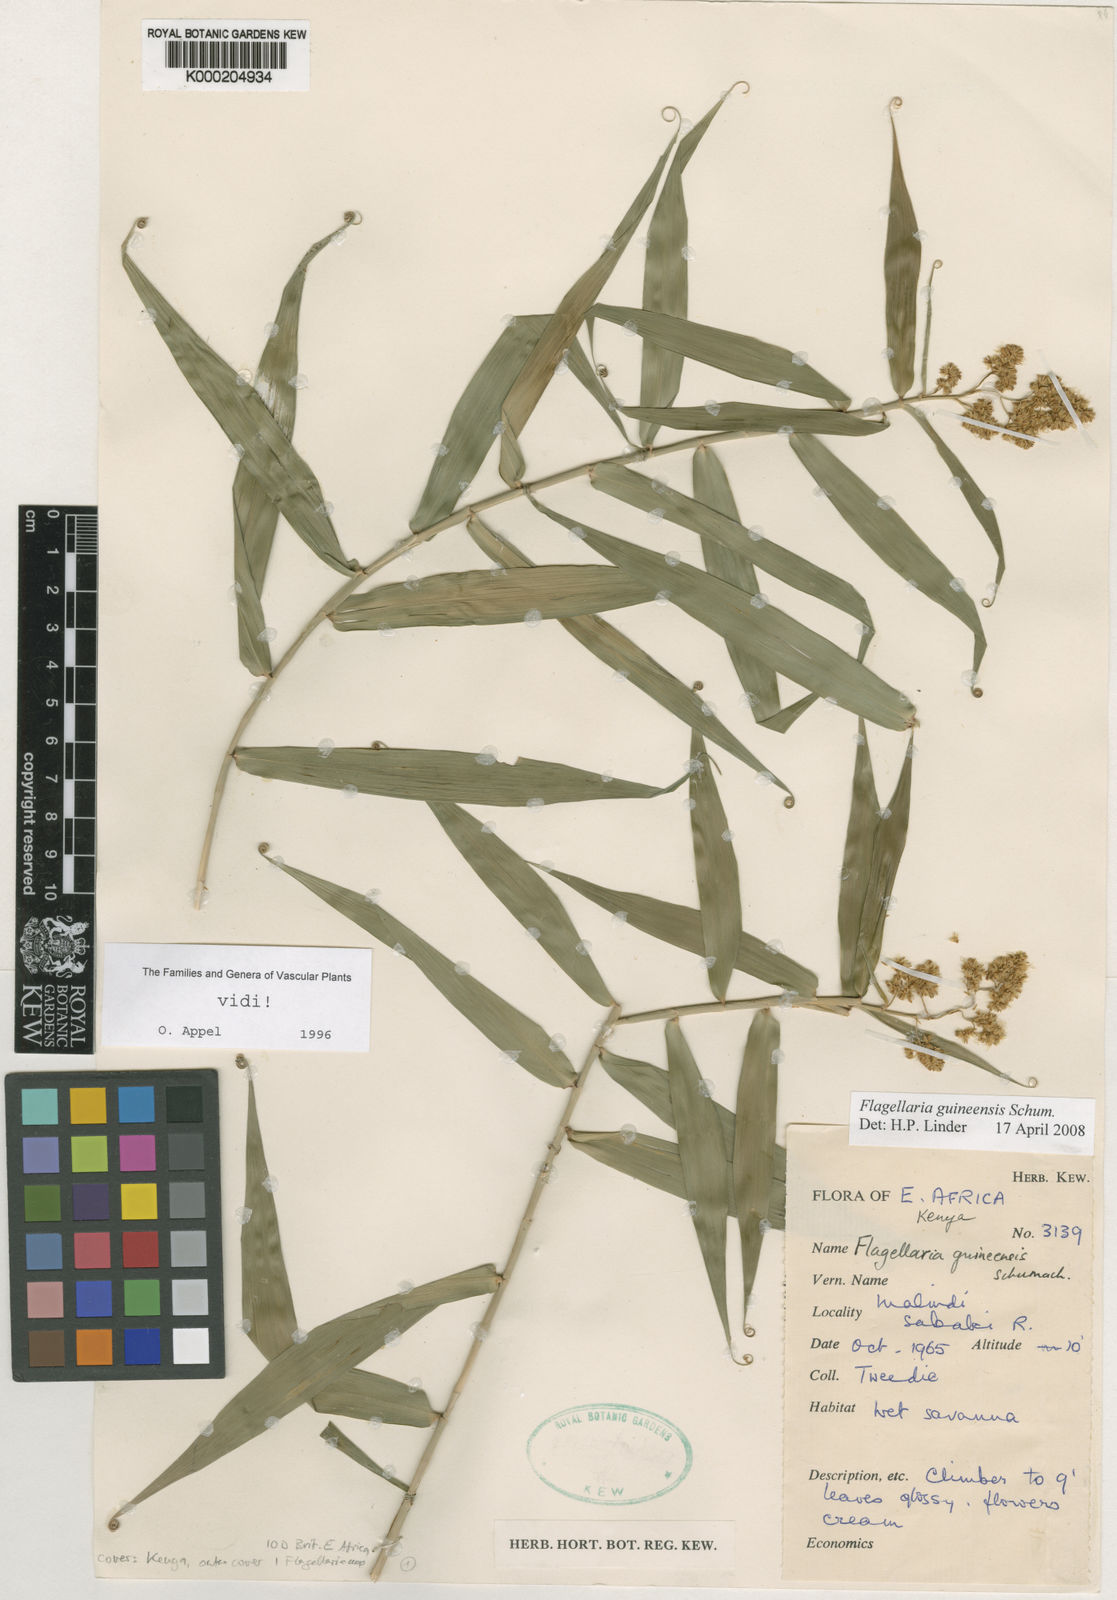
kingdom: Plantae
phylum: Tracheophyta
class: Liliopsida
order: Poales
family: Flagellariaceae
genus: Flagellaria
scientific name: Flagellaria guineensis
